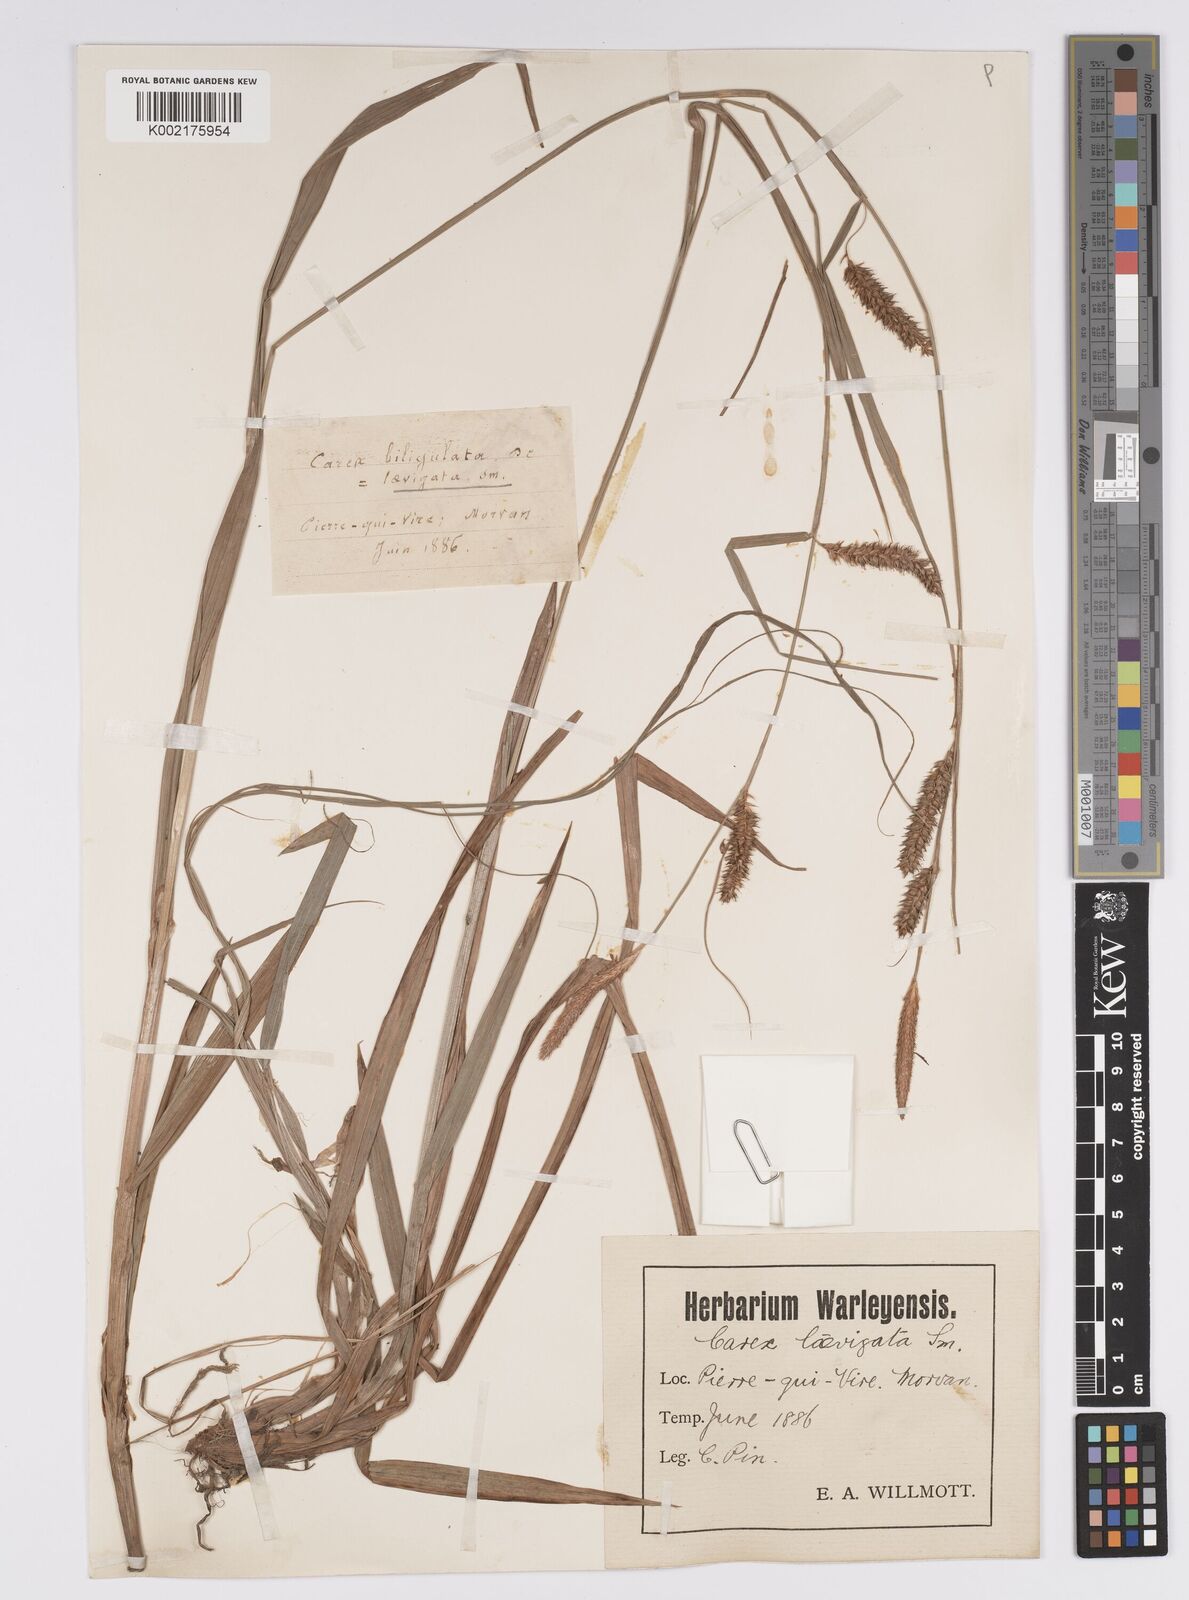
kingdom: Plantae
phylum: Tracheophyta
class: Liliopsida
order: Poales
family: Cyperaceae
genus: Carex
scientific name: Carex laevigata
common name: Smooth-stalked sedge
